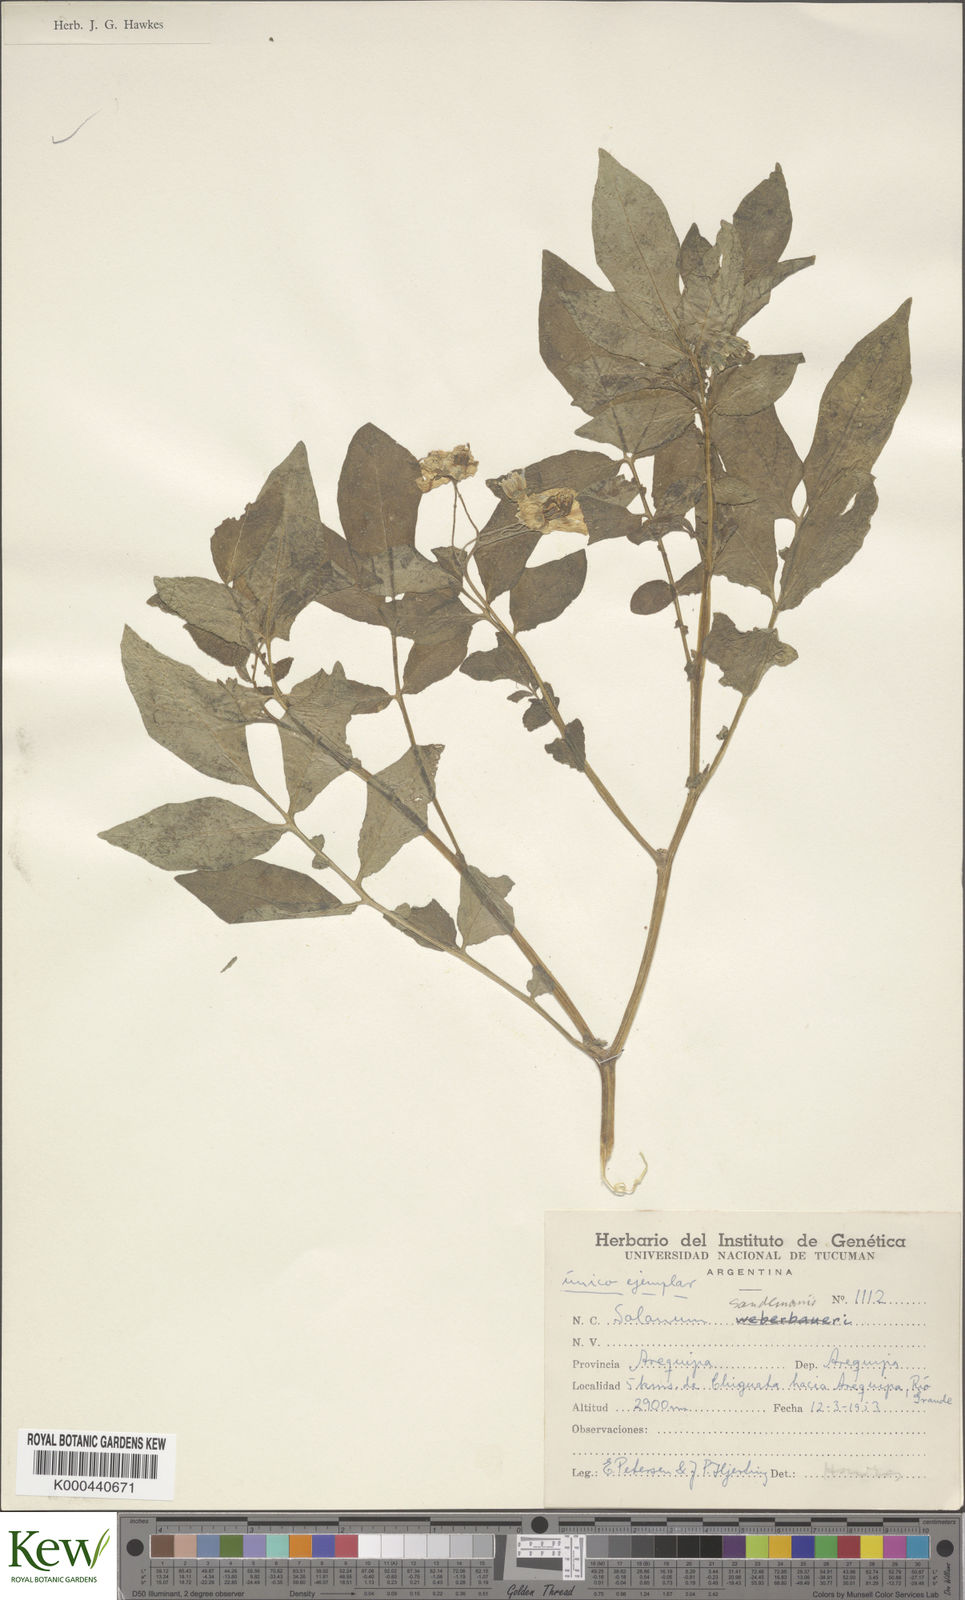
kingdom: Plantae
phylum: Tracheophyta
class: Magnoliopsida
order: Solanales
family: Solanaceae
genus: Solanum
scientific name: Solanum medians
